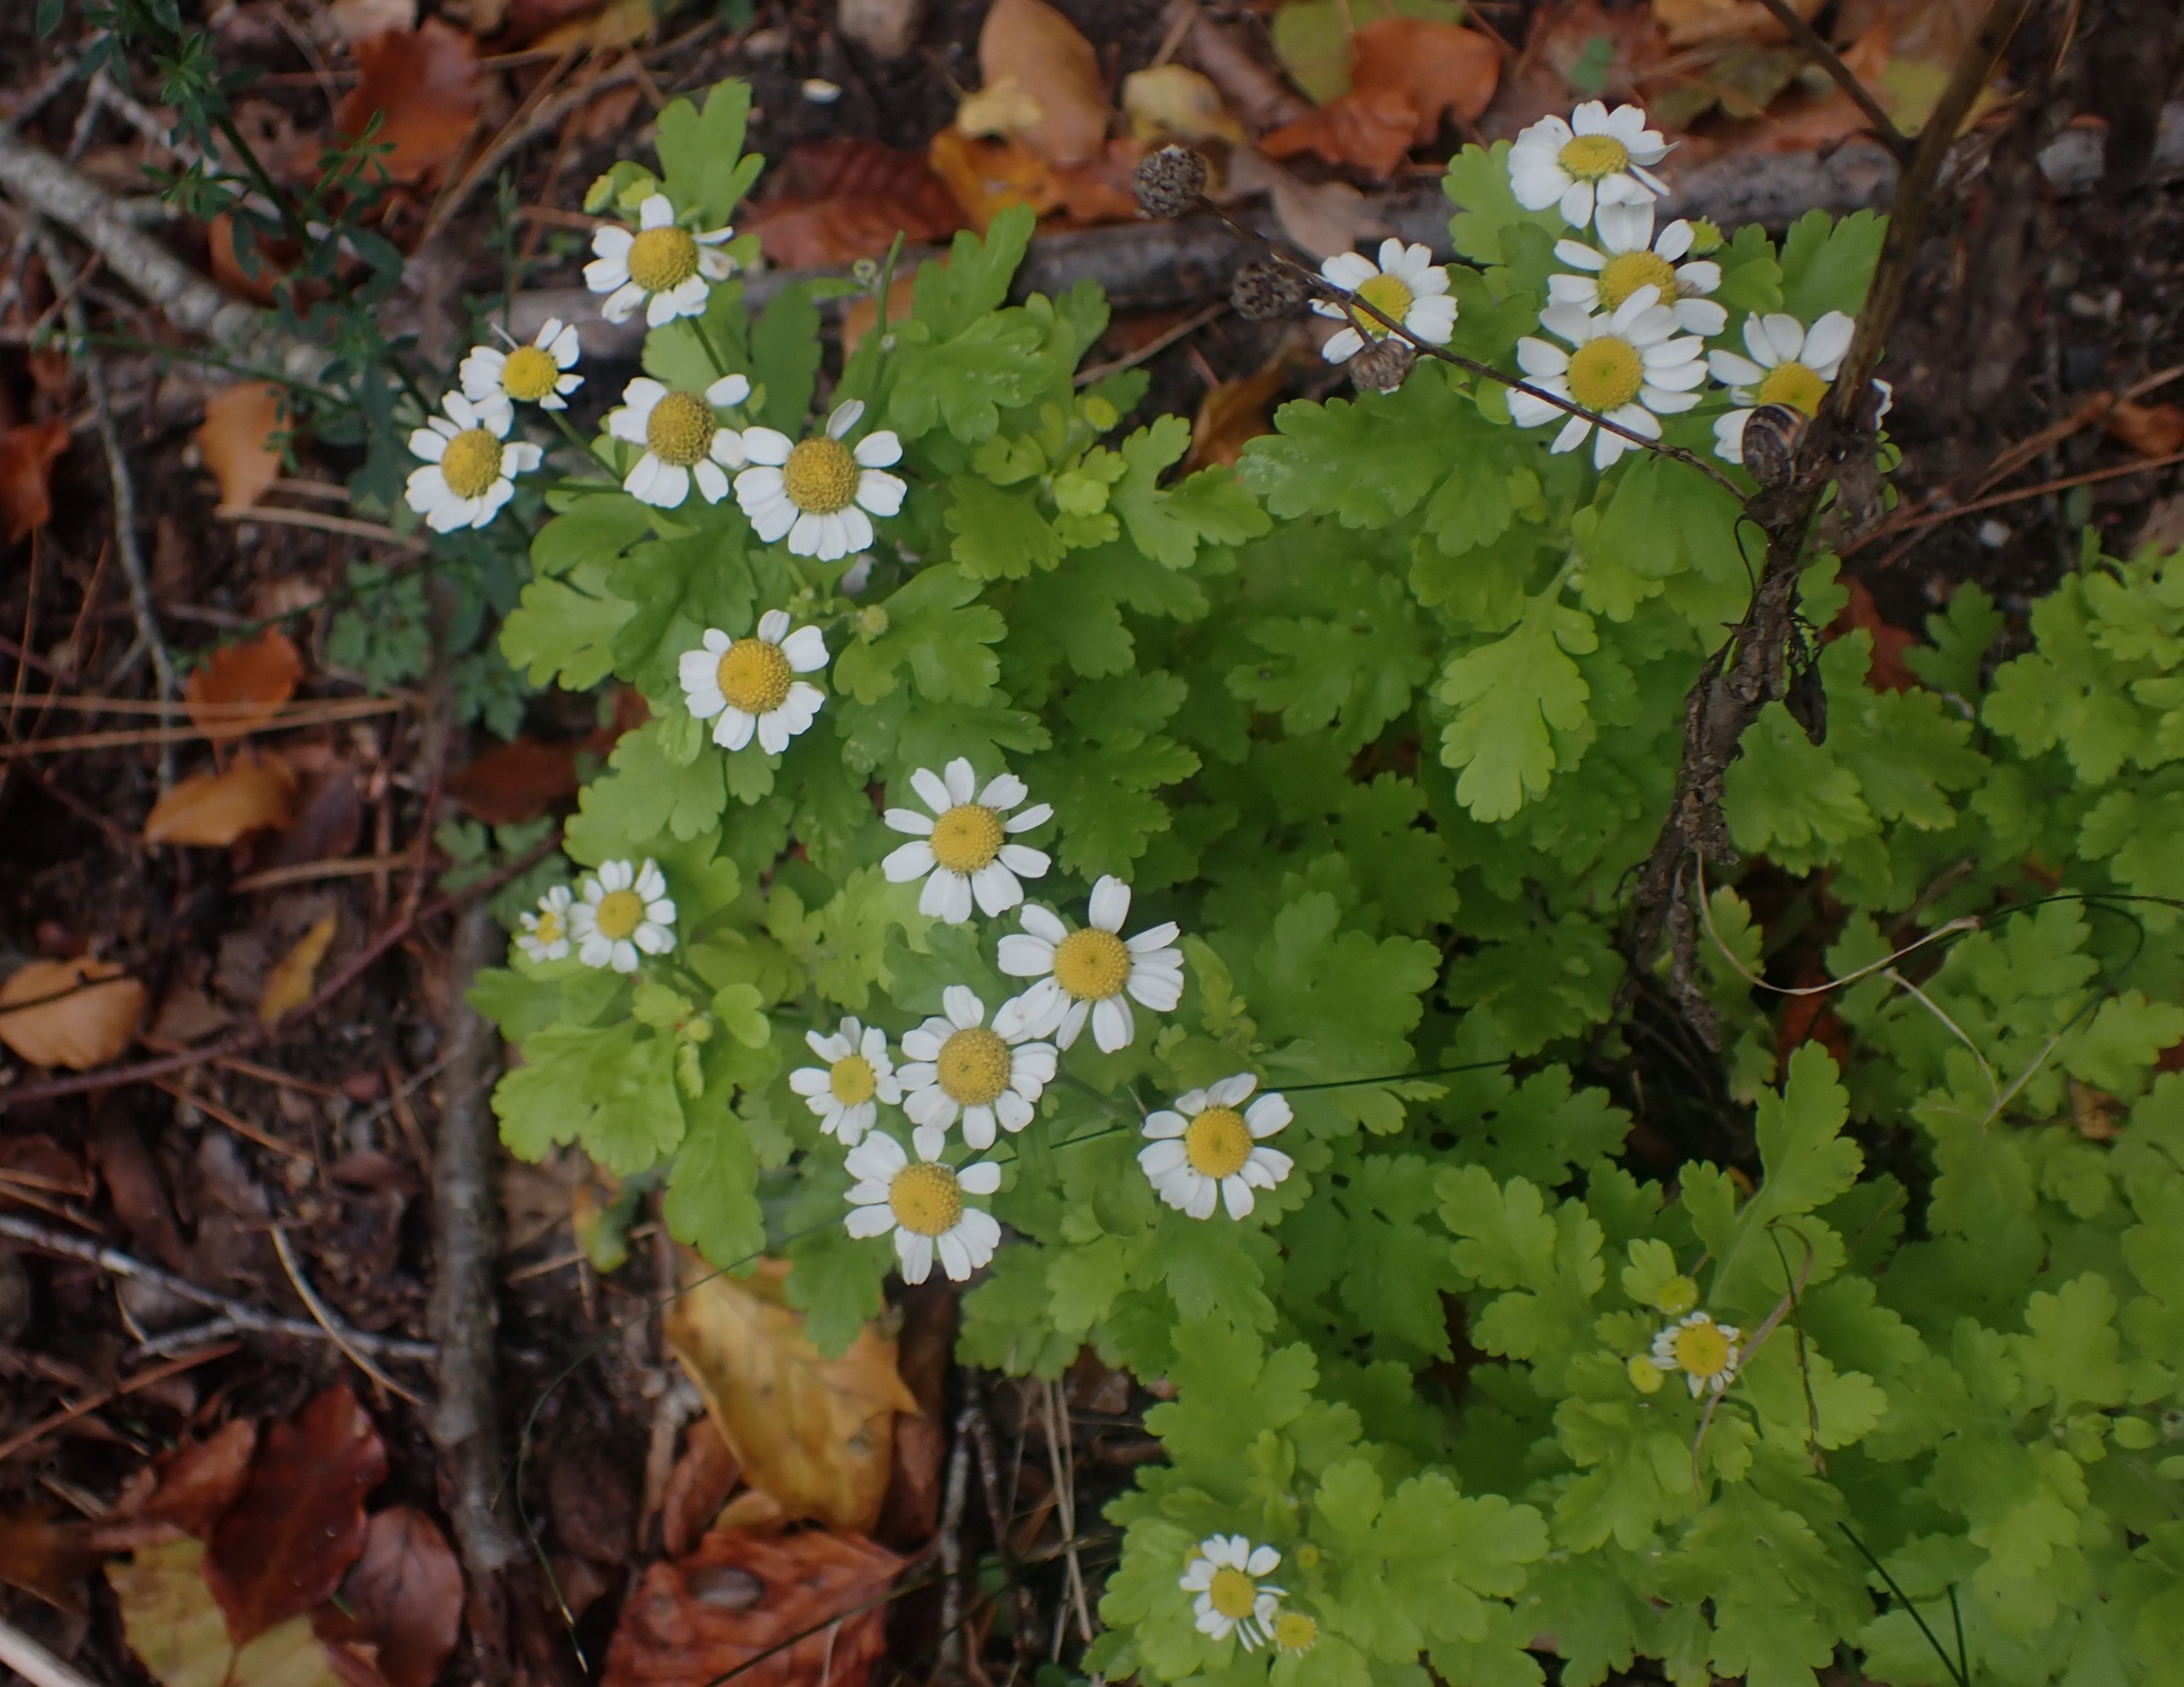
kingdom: Plantae
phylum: Tracheophyta
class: Magnoliopsida
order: Asterales
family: Asteraceae
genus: Tanacetum
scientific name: Tanacetum parthenium
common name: Matrem
